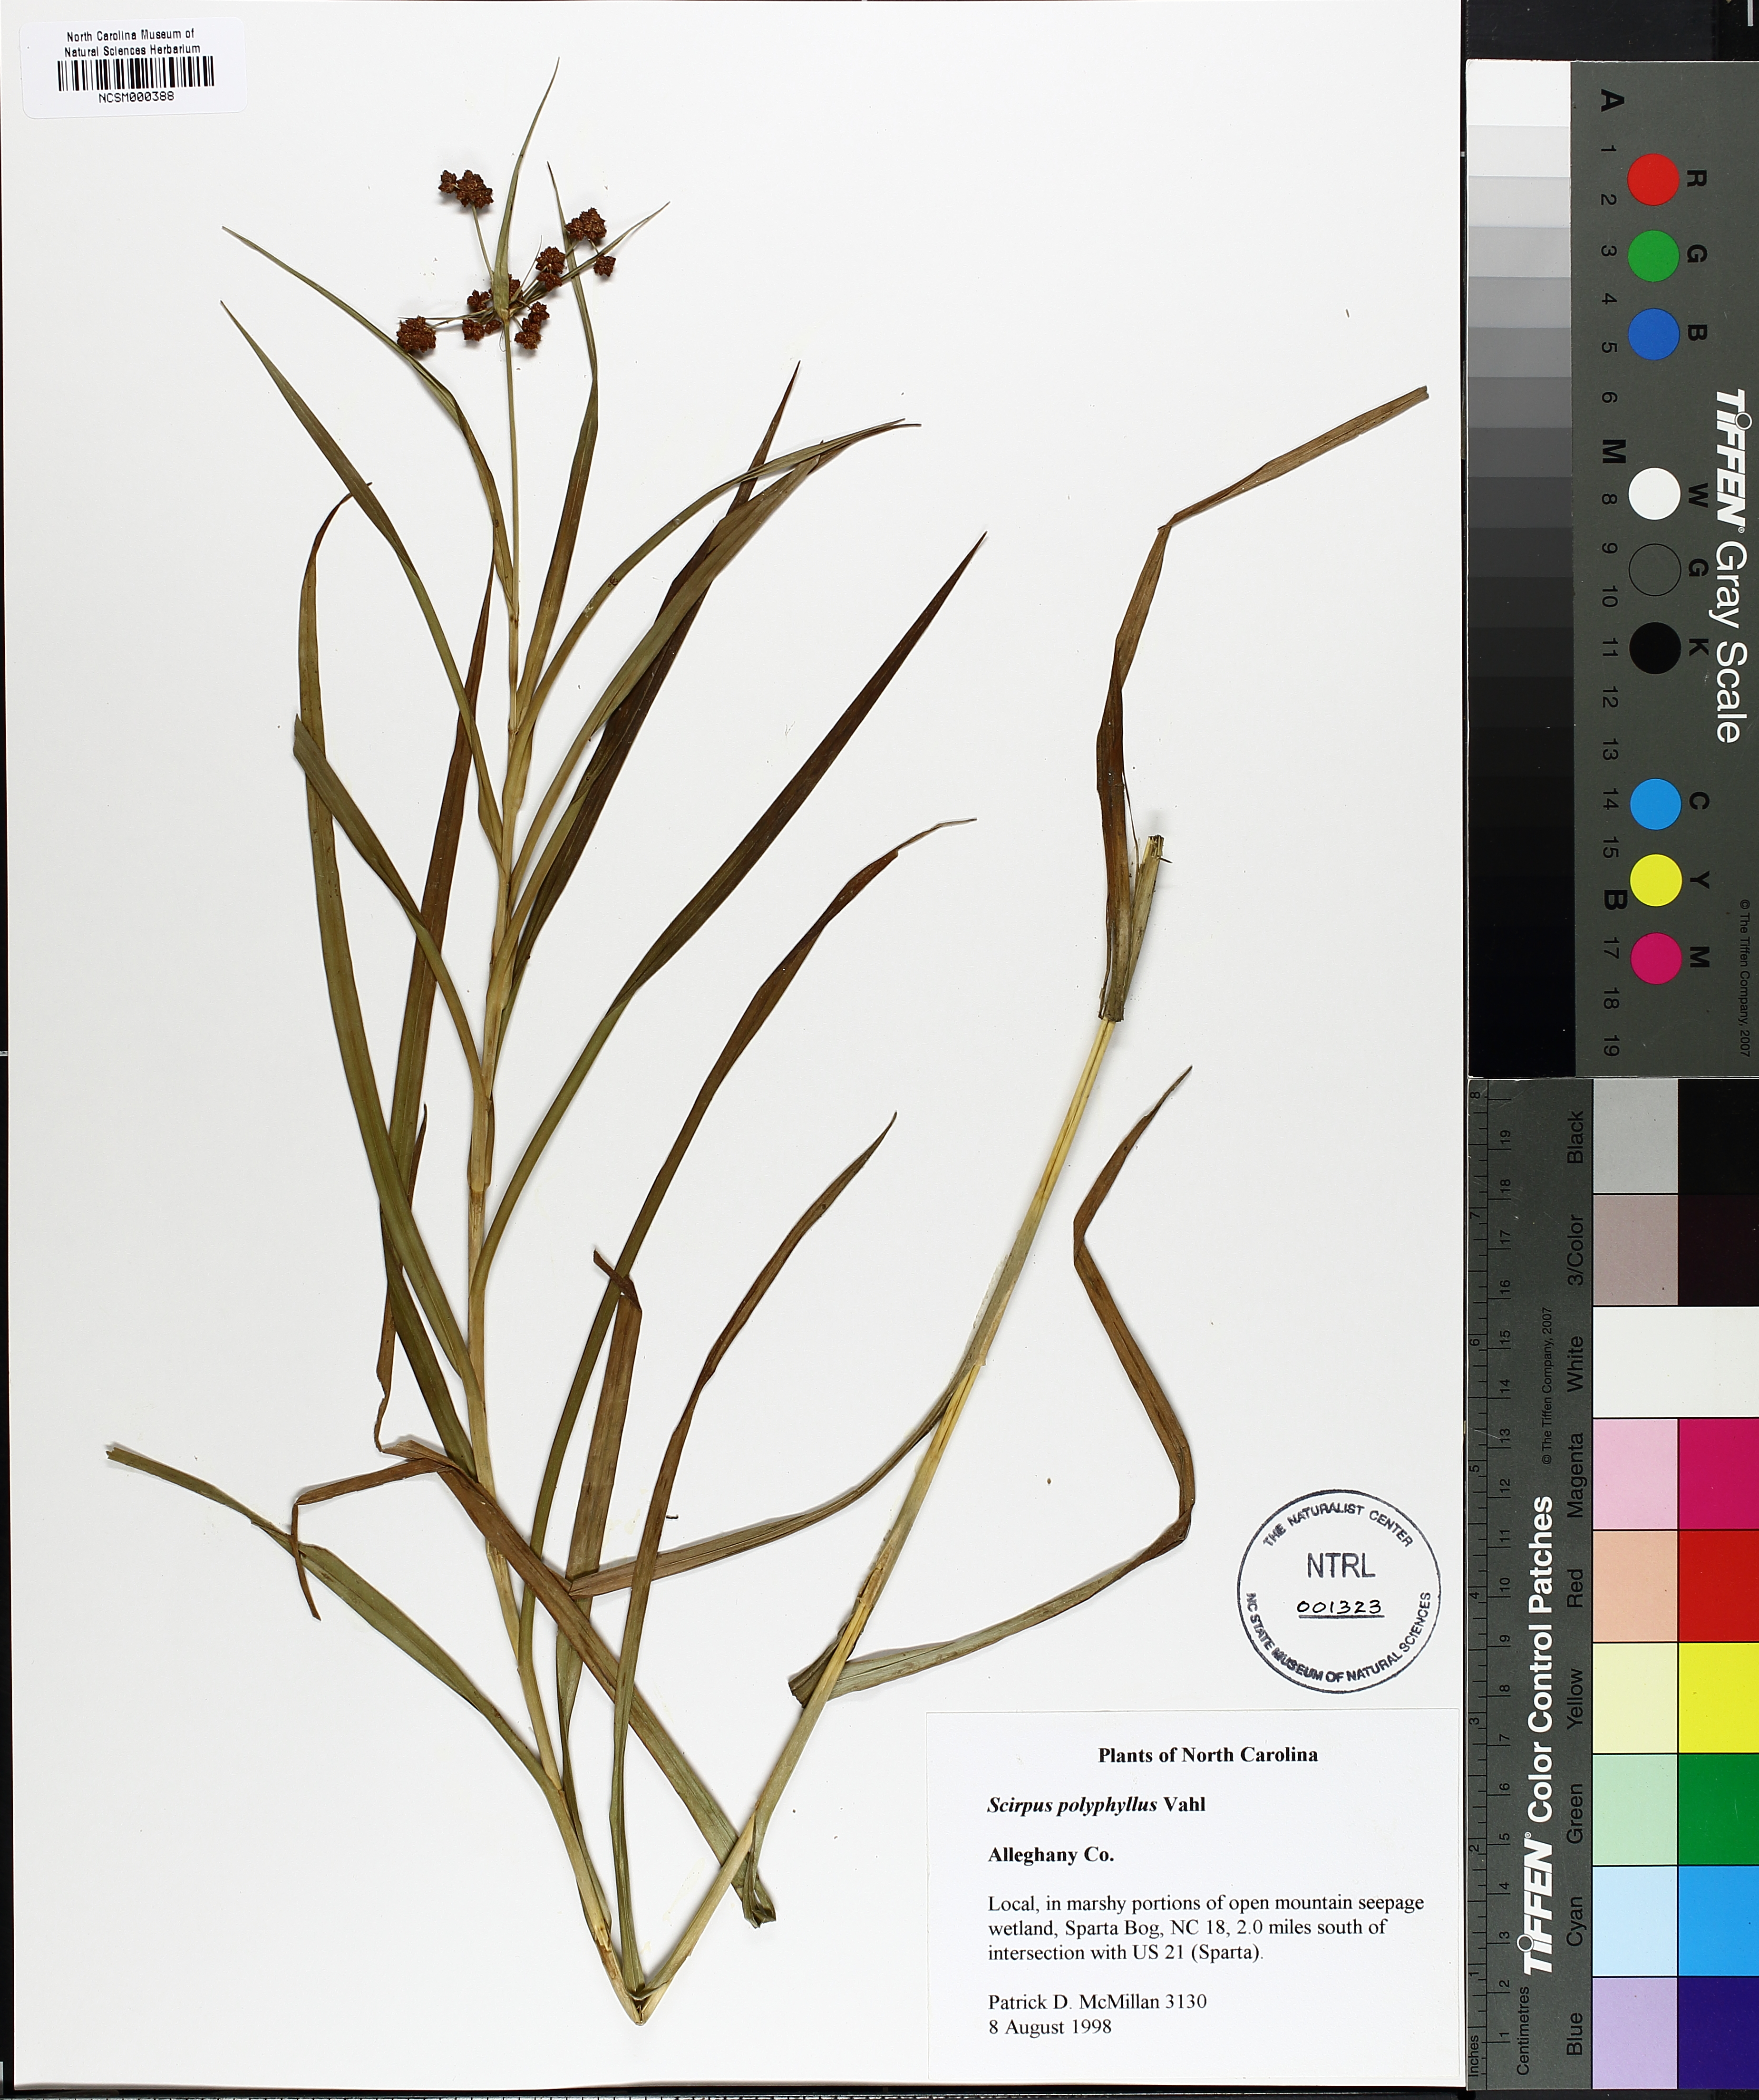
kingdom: Plantae
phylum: Tracheophyta
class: Liliopsida
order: Poales
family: Cyperaceae
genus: Scirpus
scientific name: Scirpus polyphyllus
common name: Leafy bulrush
